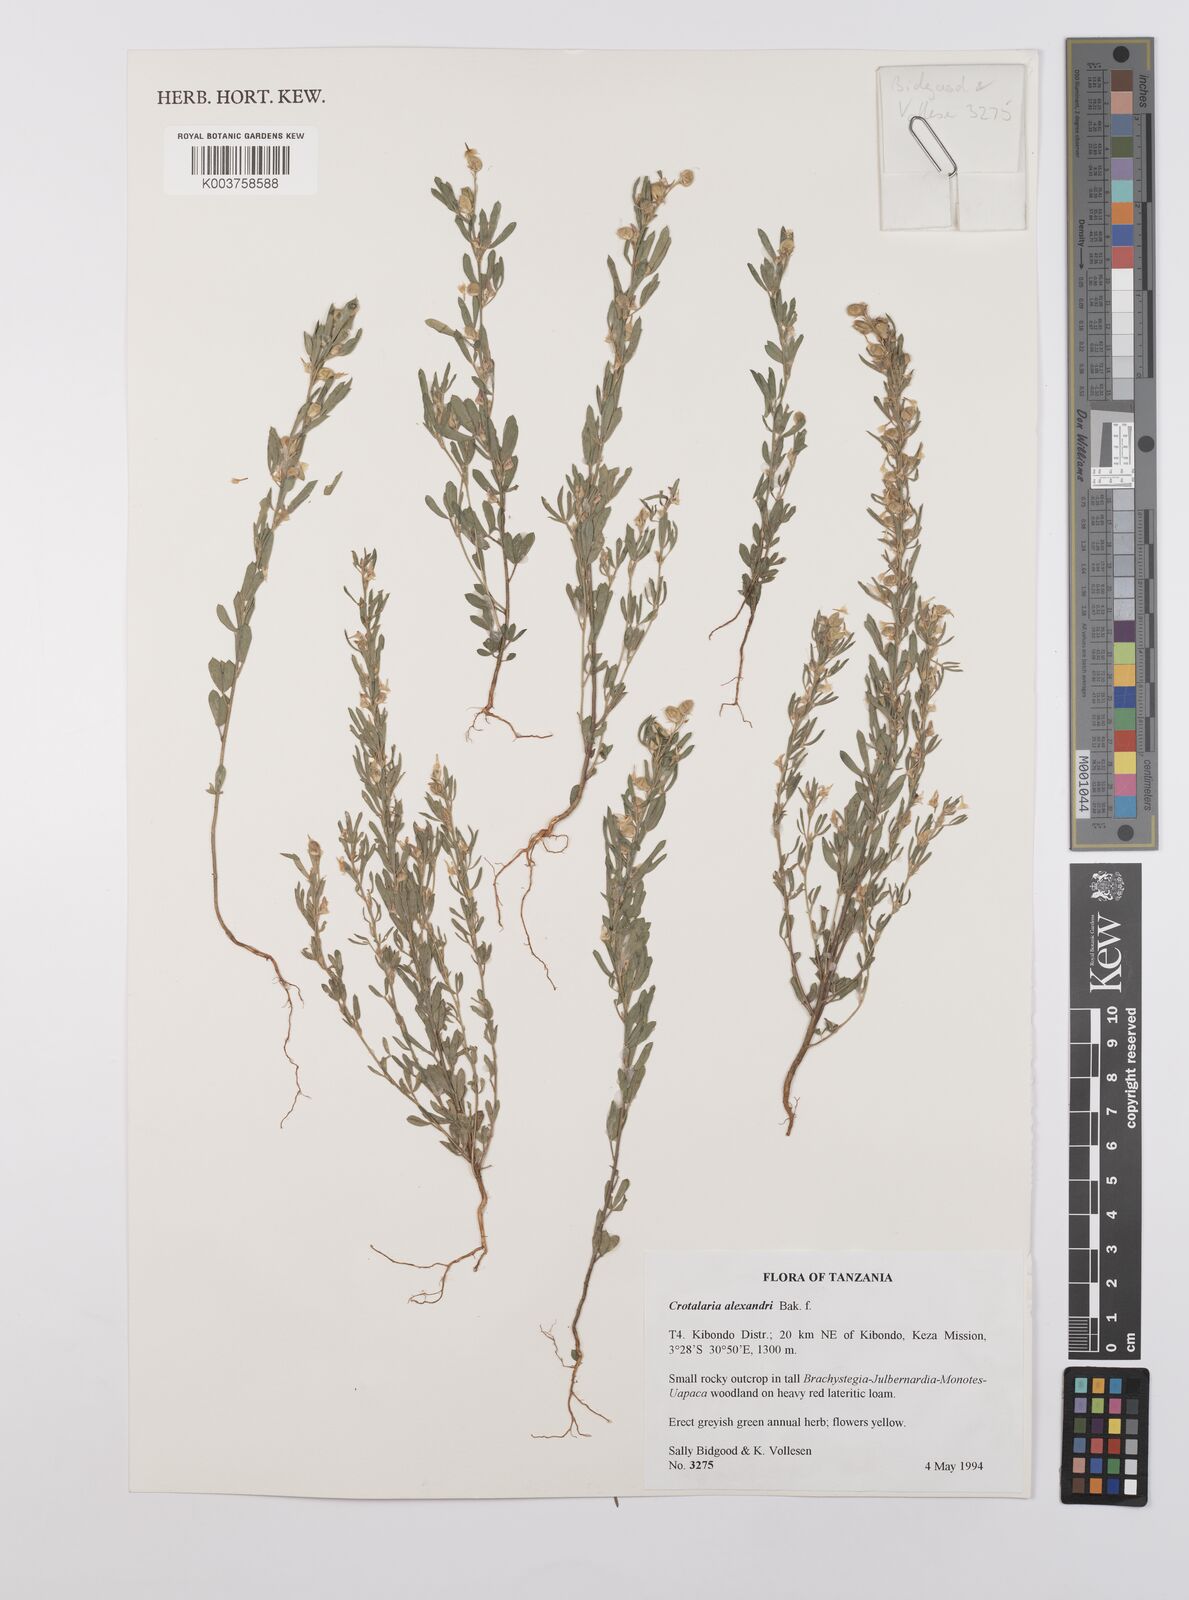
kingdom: Plantae
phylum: Tracheophyta
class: Magnoliopsida
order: Fabales
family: Fabaceae
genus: Crotalaria
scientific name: Crotalaria alexandri
